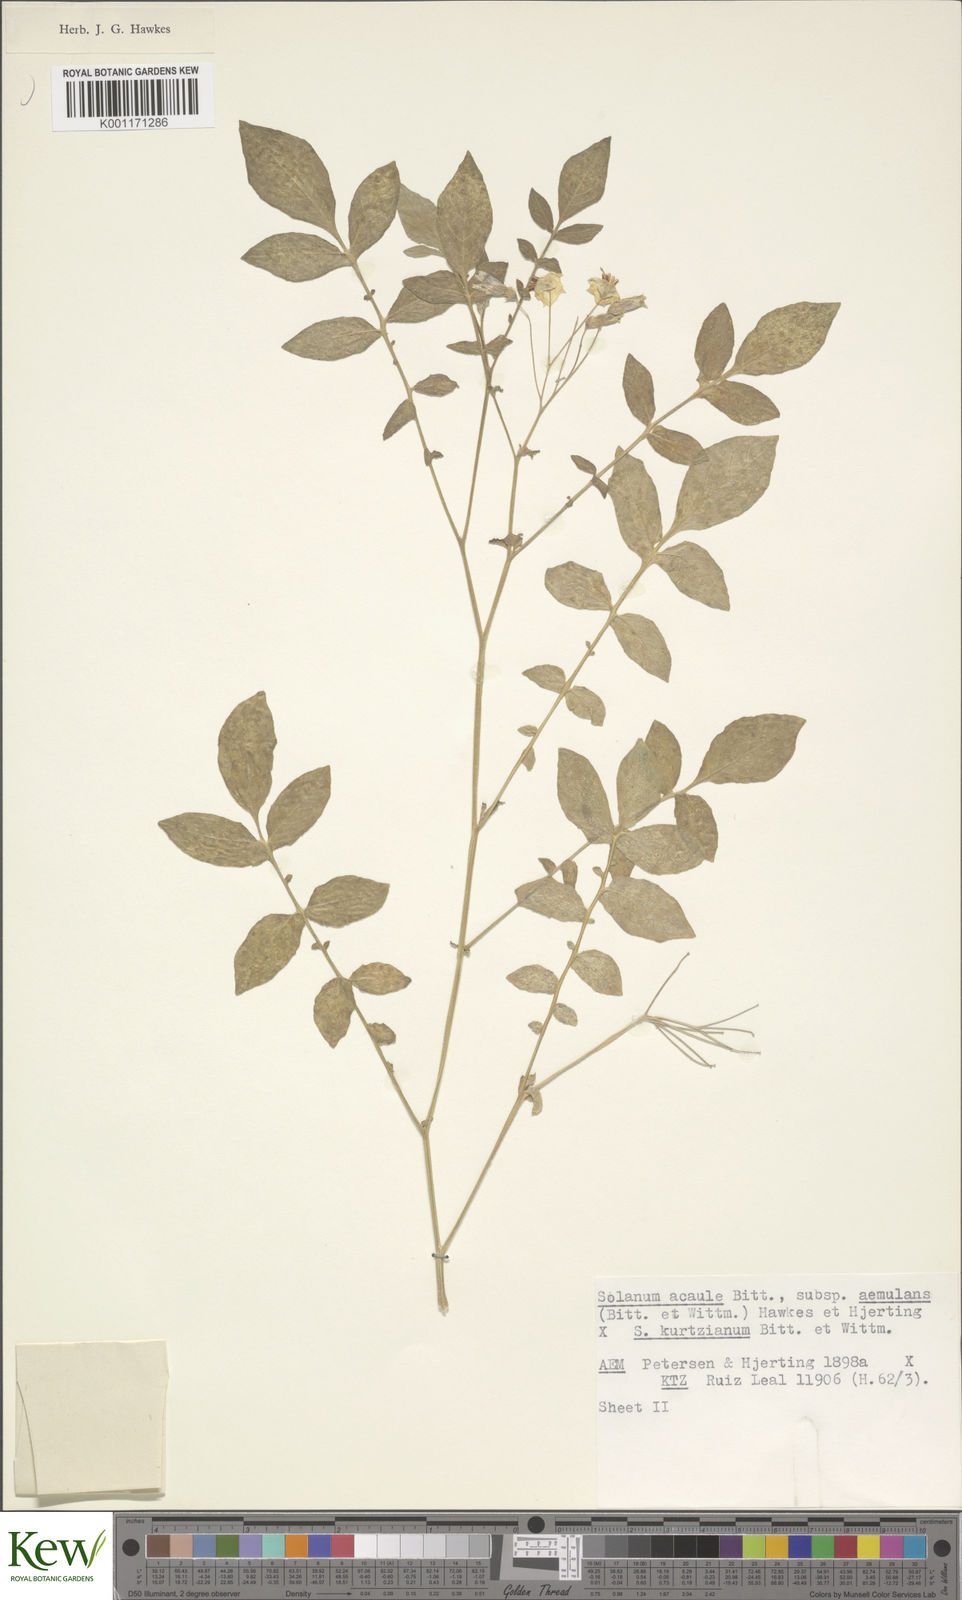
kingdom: Plantae
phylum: Tracheophyta
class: Magnoliopsida
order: Solanales
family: Solanaceae
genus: Solanum
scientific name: Solanum aemulans
